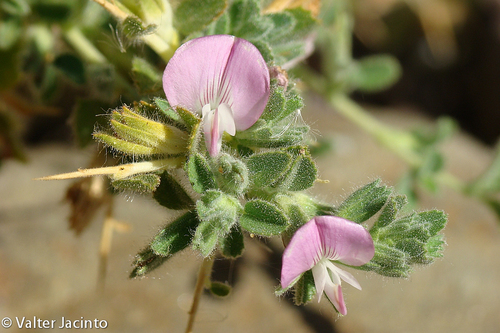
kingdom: Plantae
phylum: Tracheophyta
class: Magnoliopsida
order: Fabales
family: Fabaceae
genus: Ononis
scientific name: Ononis spinosa
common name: Spiny restharrow
